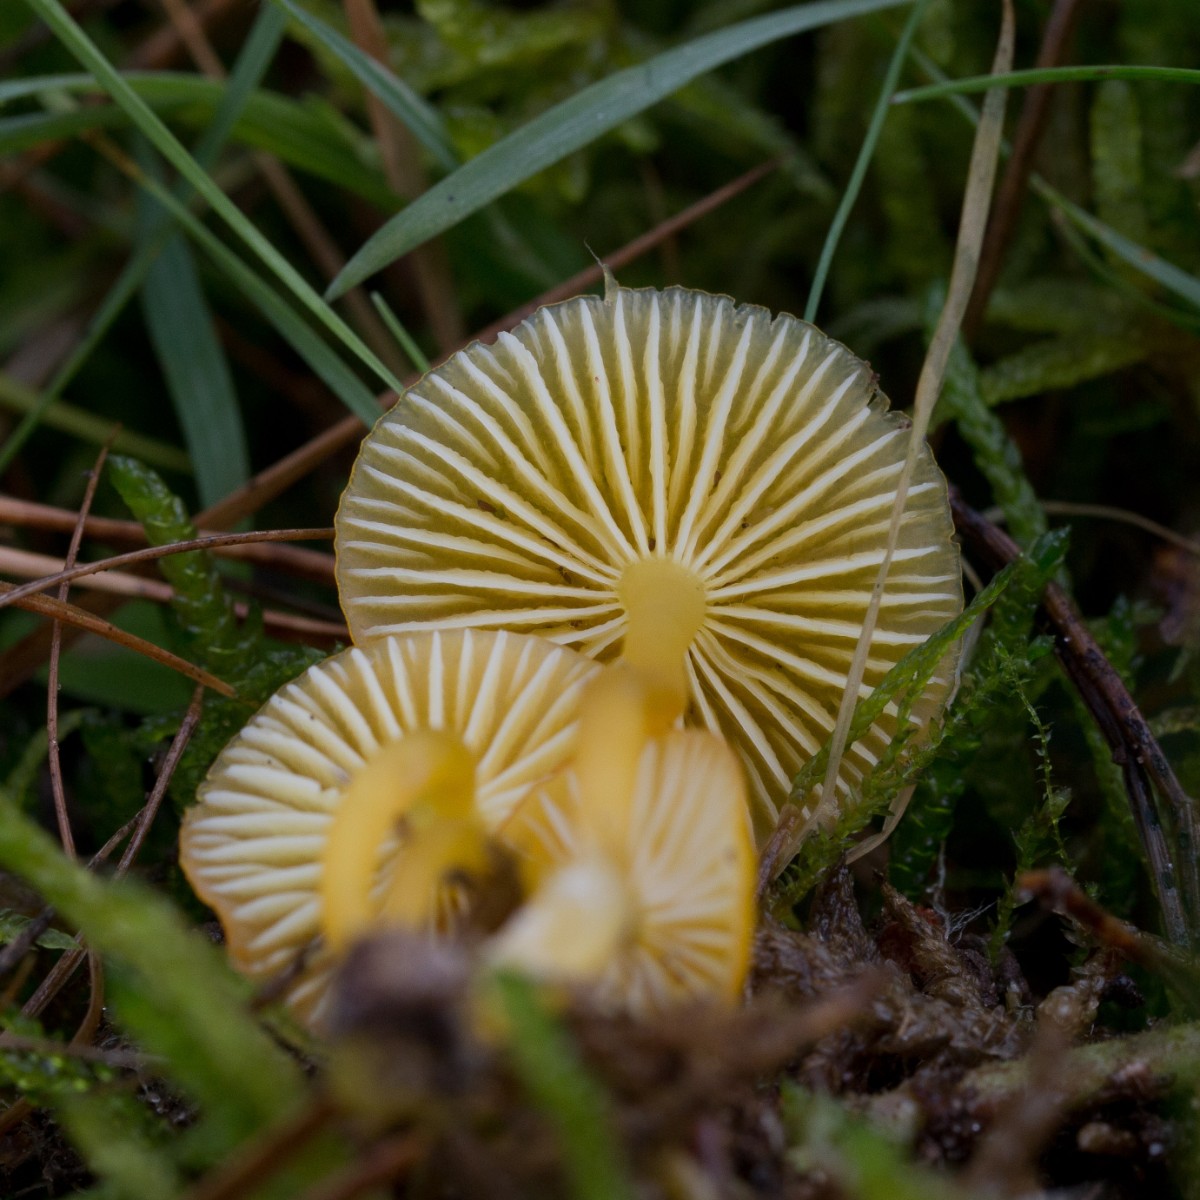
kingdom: Fungi
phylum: Basidiomycota
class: Agaricomycetes
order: Agaricales
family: Hygrophoraceae
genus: Hygrocybe
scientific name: Hygrocybe ceracea
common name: voksgul vokshat
